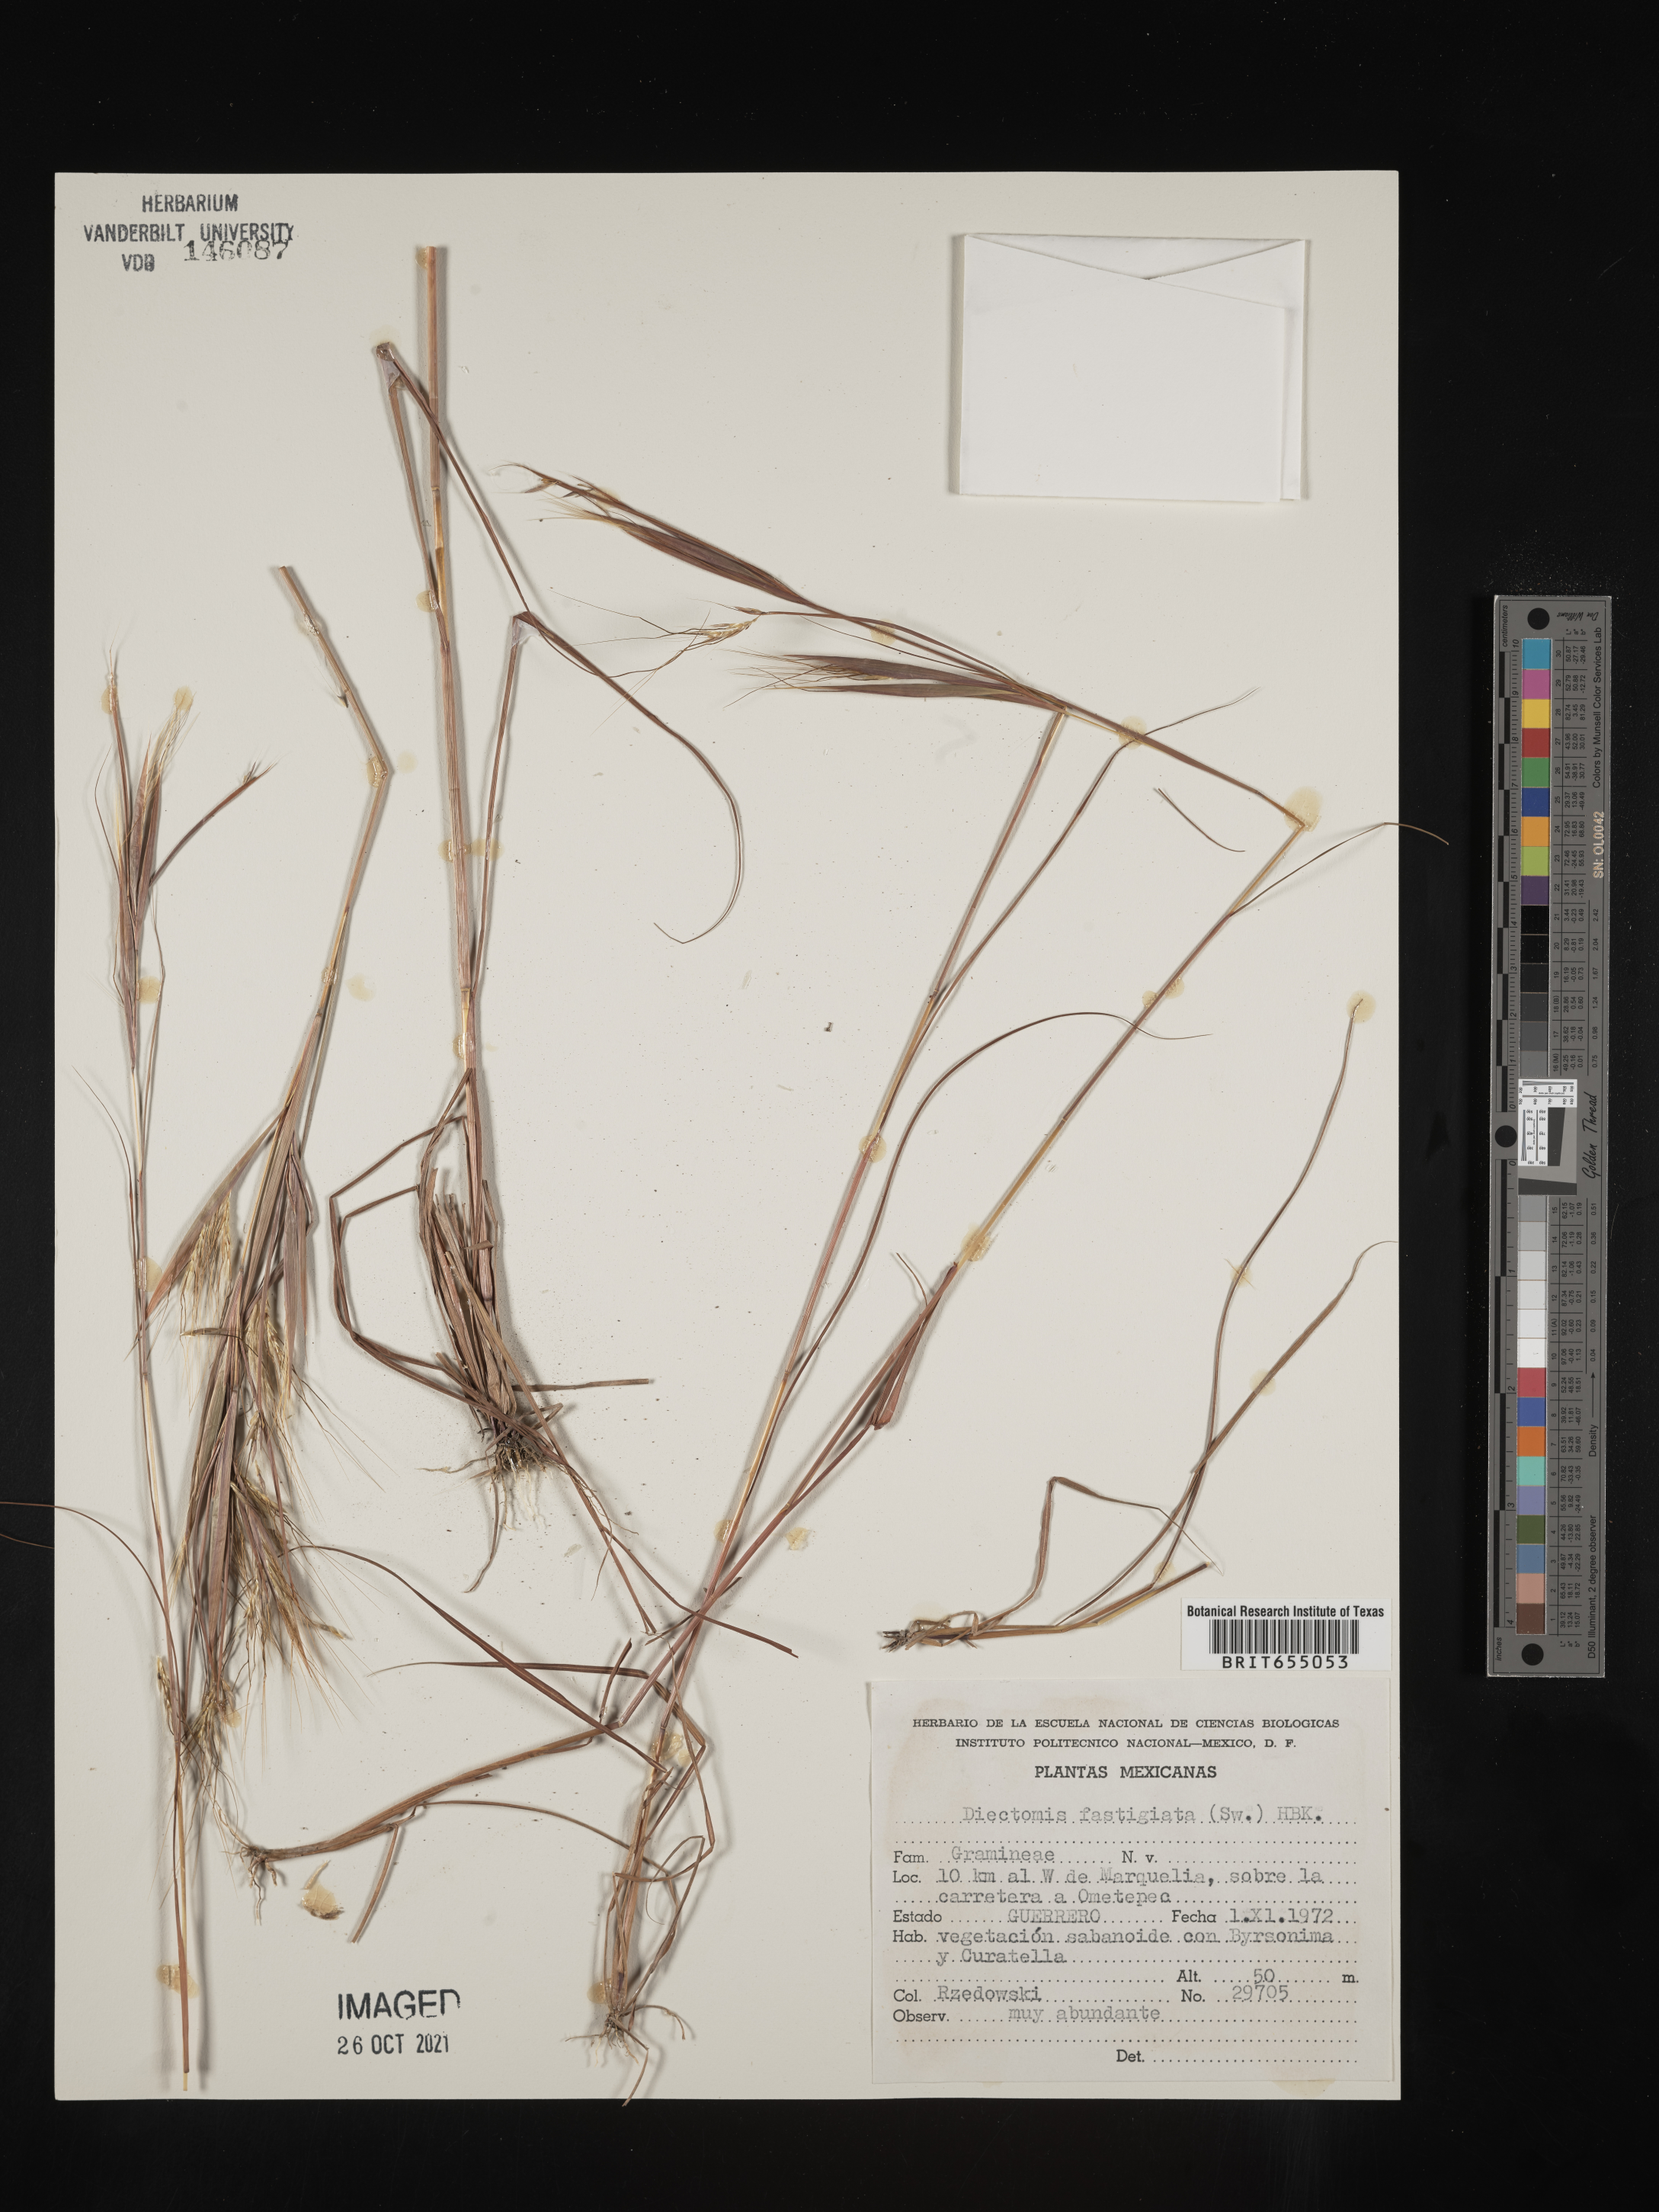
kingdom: Plantae
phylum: Tracheophyta
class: Liliopsida
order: Poales
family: Poaceae
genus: Diectomis
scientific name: Diectomis
